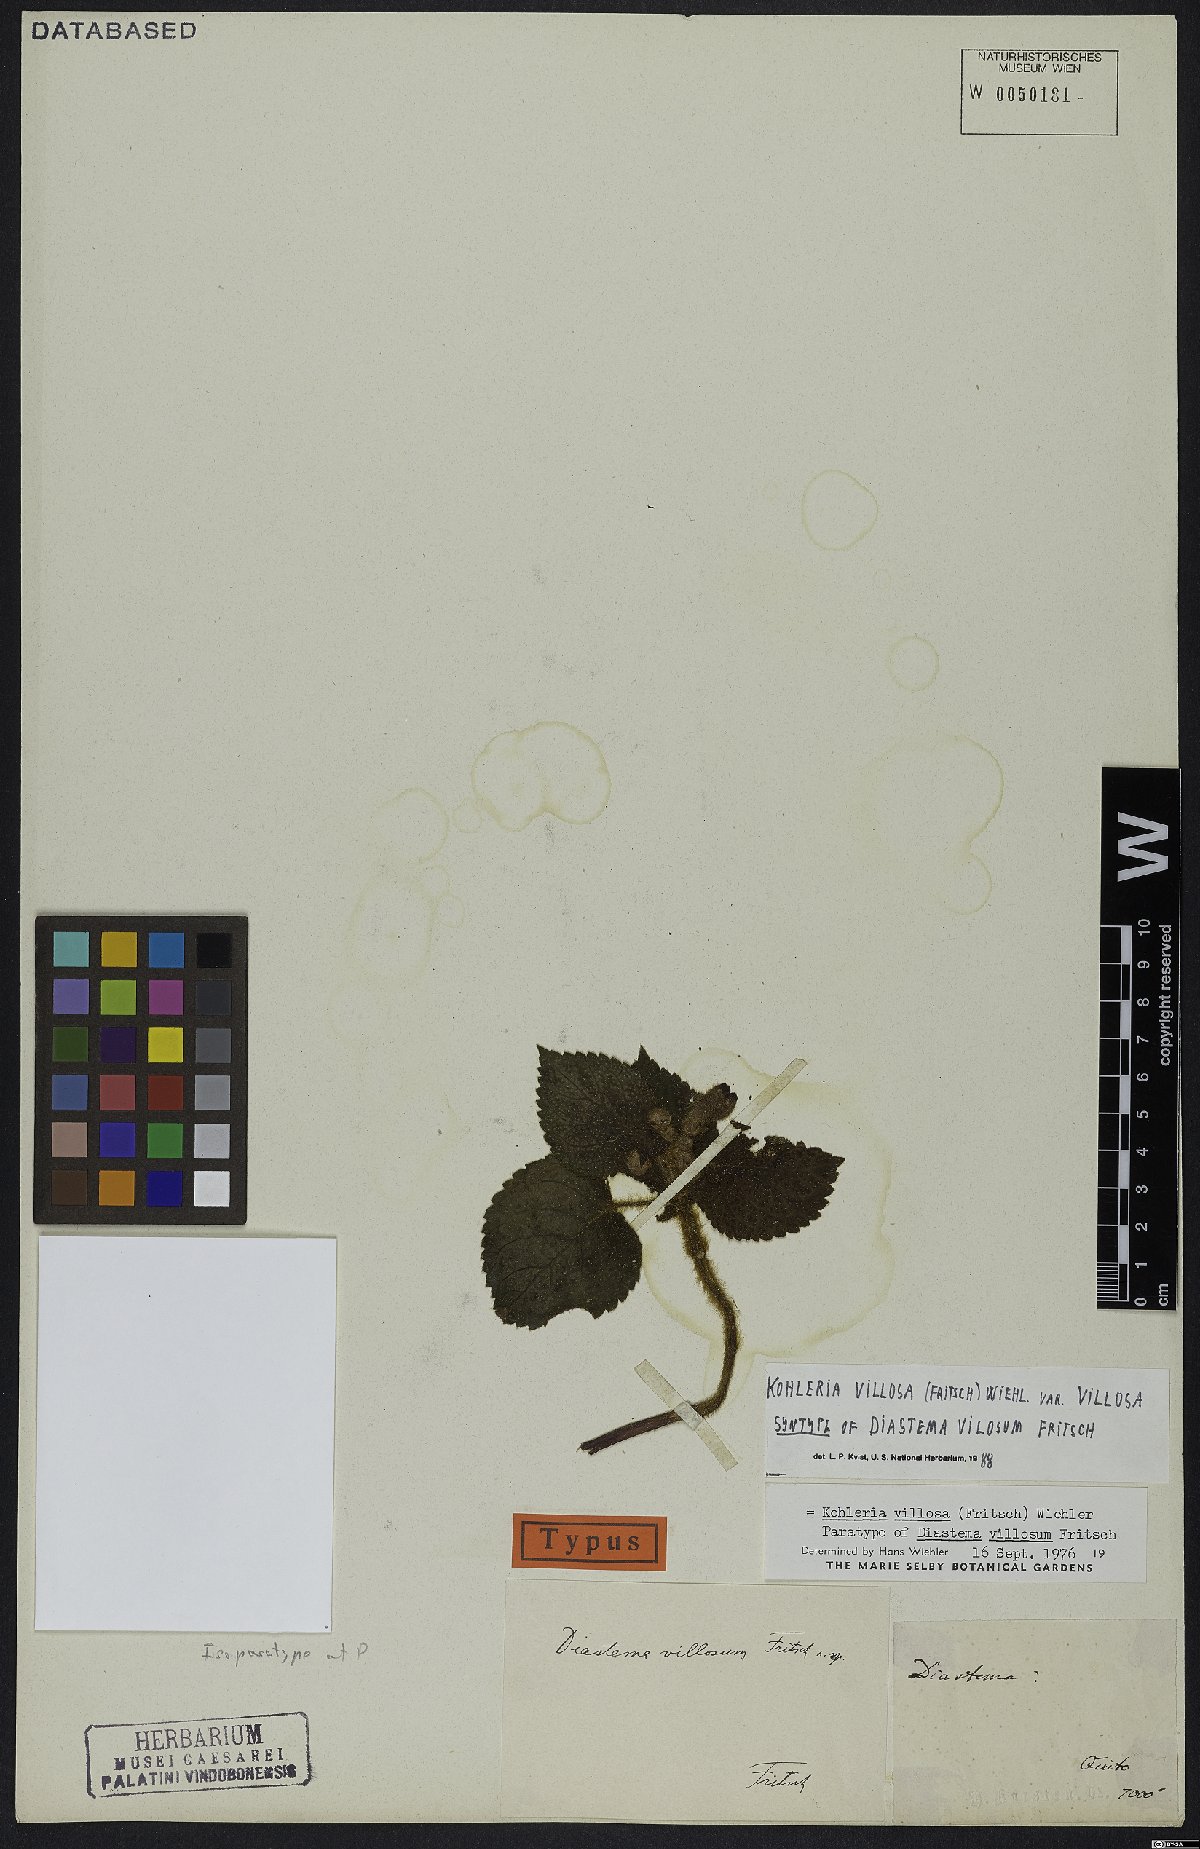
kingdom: Plantae
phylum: Tracheophyta
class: Magnoliopsida
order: Lamiales
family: Gesneriaceae
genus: Kohleria
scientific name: Kohleria villosa
